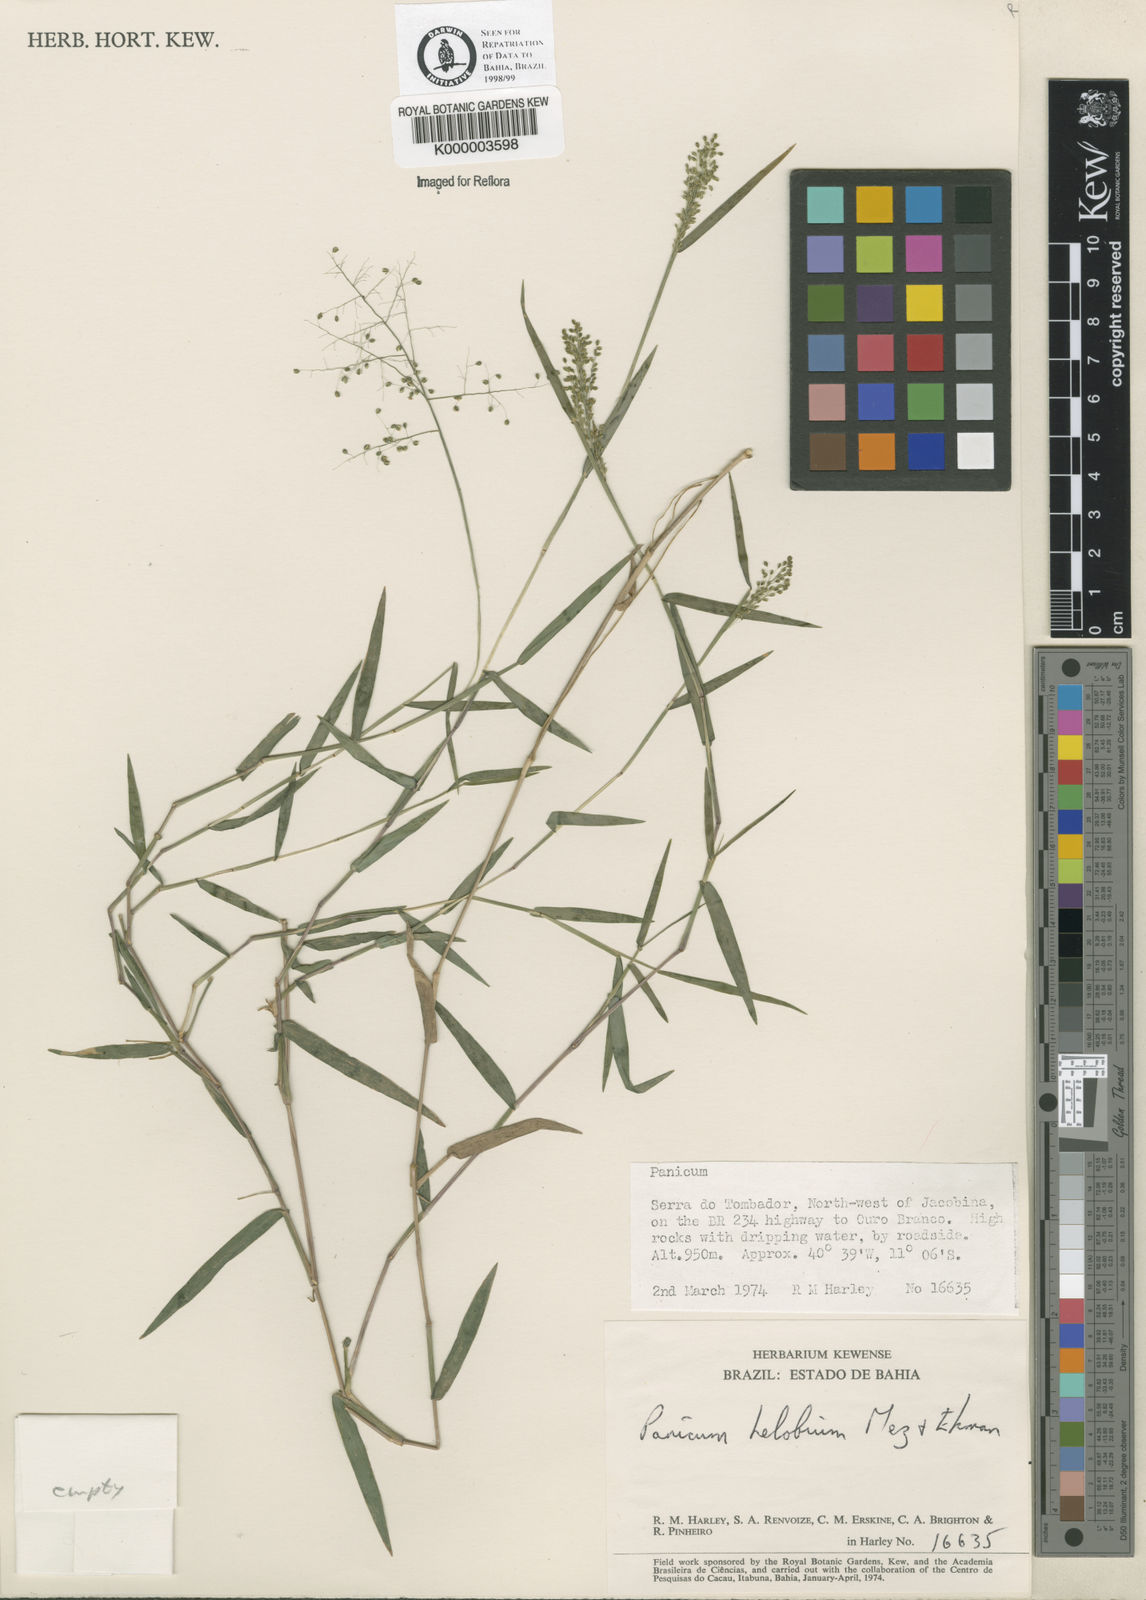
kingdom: Plantae
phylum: Tracheophyta
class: Liliopsida
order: Poales
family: Poaceae
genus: Trichanthecium
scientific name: Trichanthecium schwackeanum
